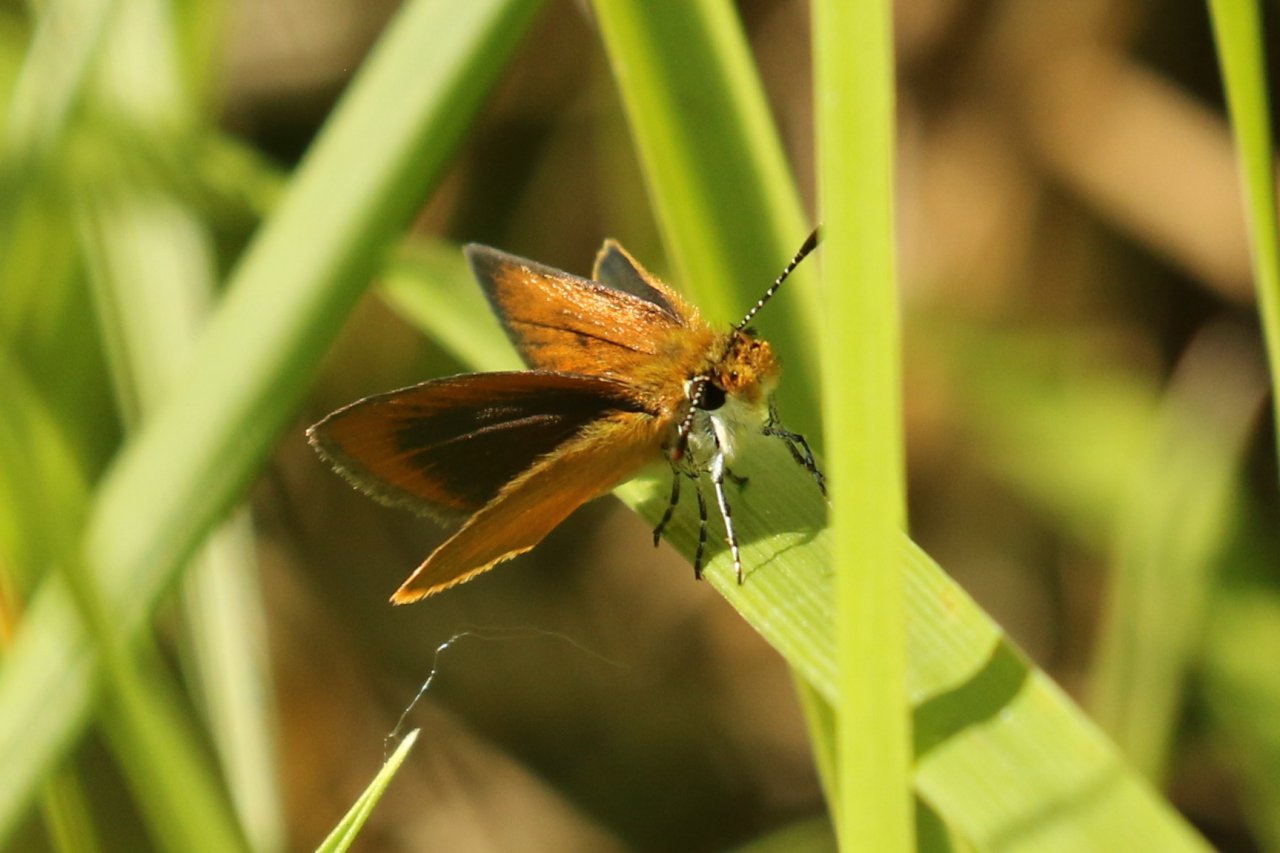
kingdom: Animalia
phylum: Arthropoda
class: Insecta
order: Lepidoptera
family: Hesperiidae
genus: Ancyloxypha
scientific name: Ancyloxypha numitor
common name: Least Skipper
